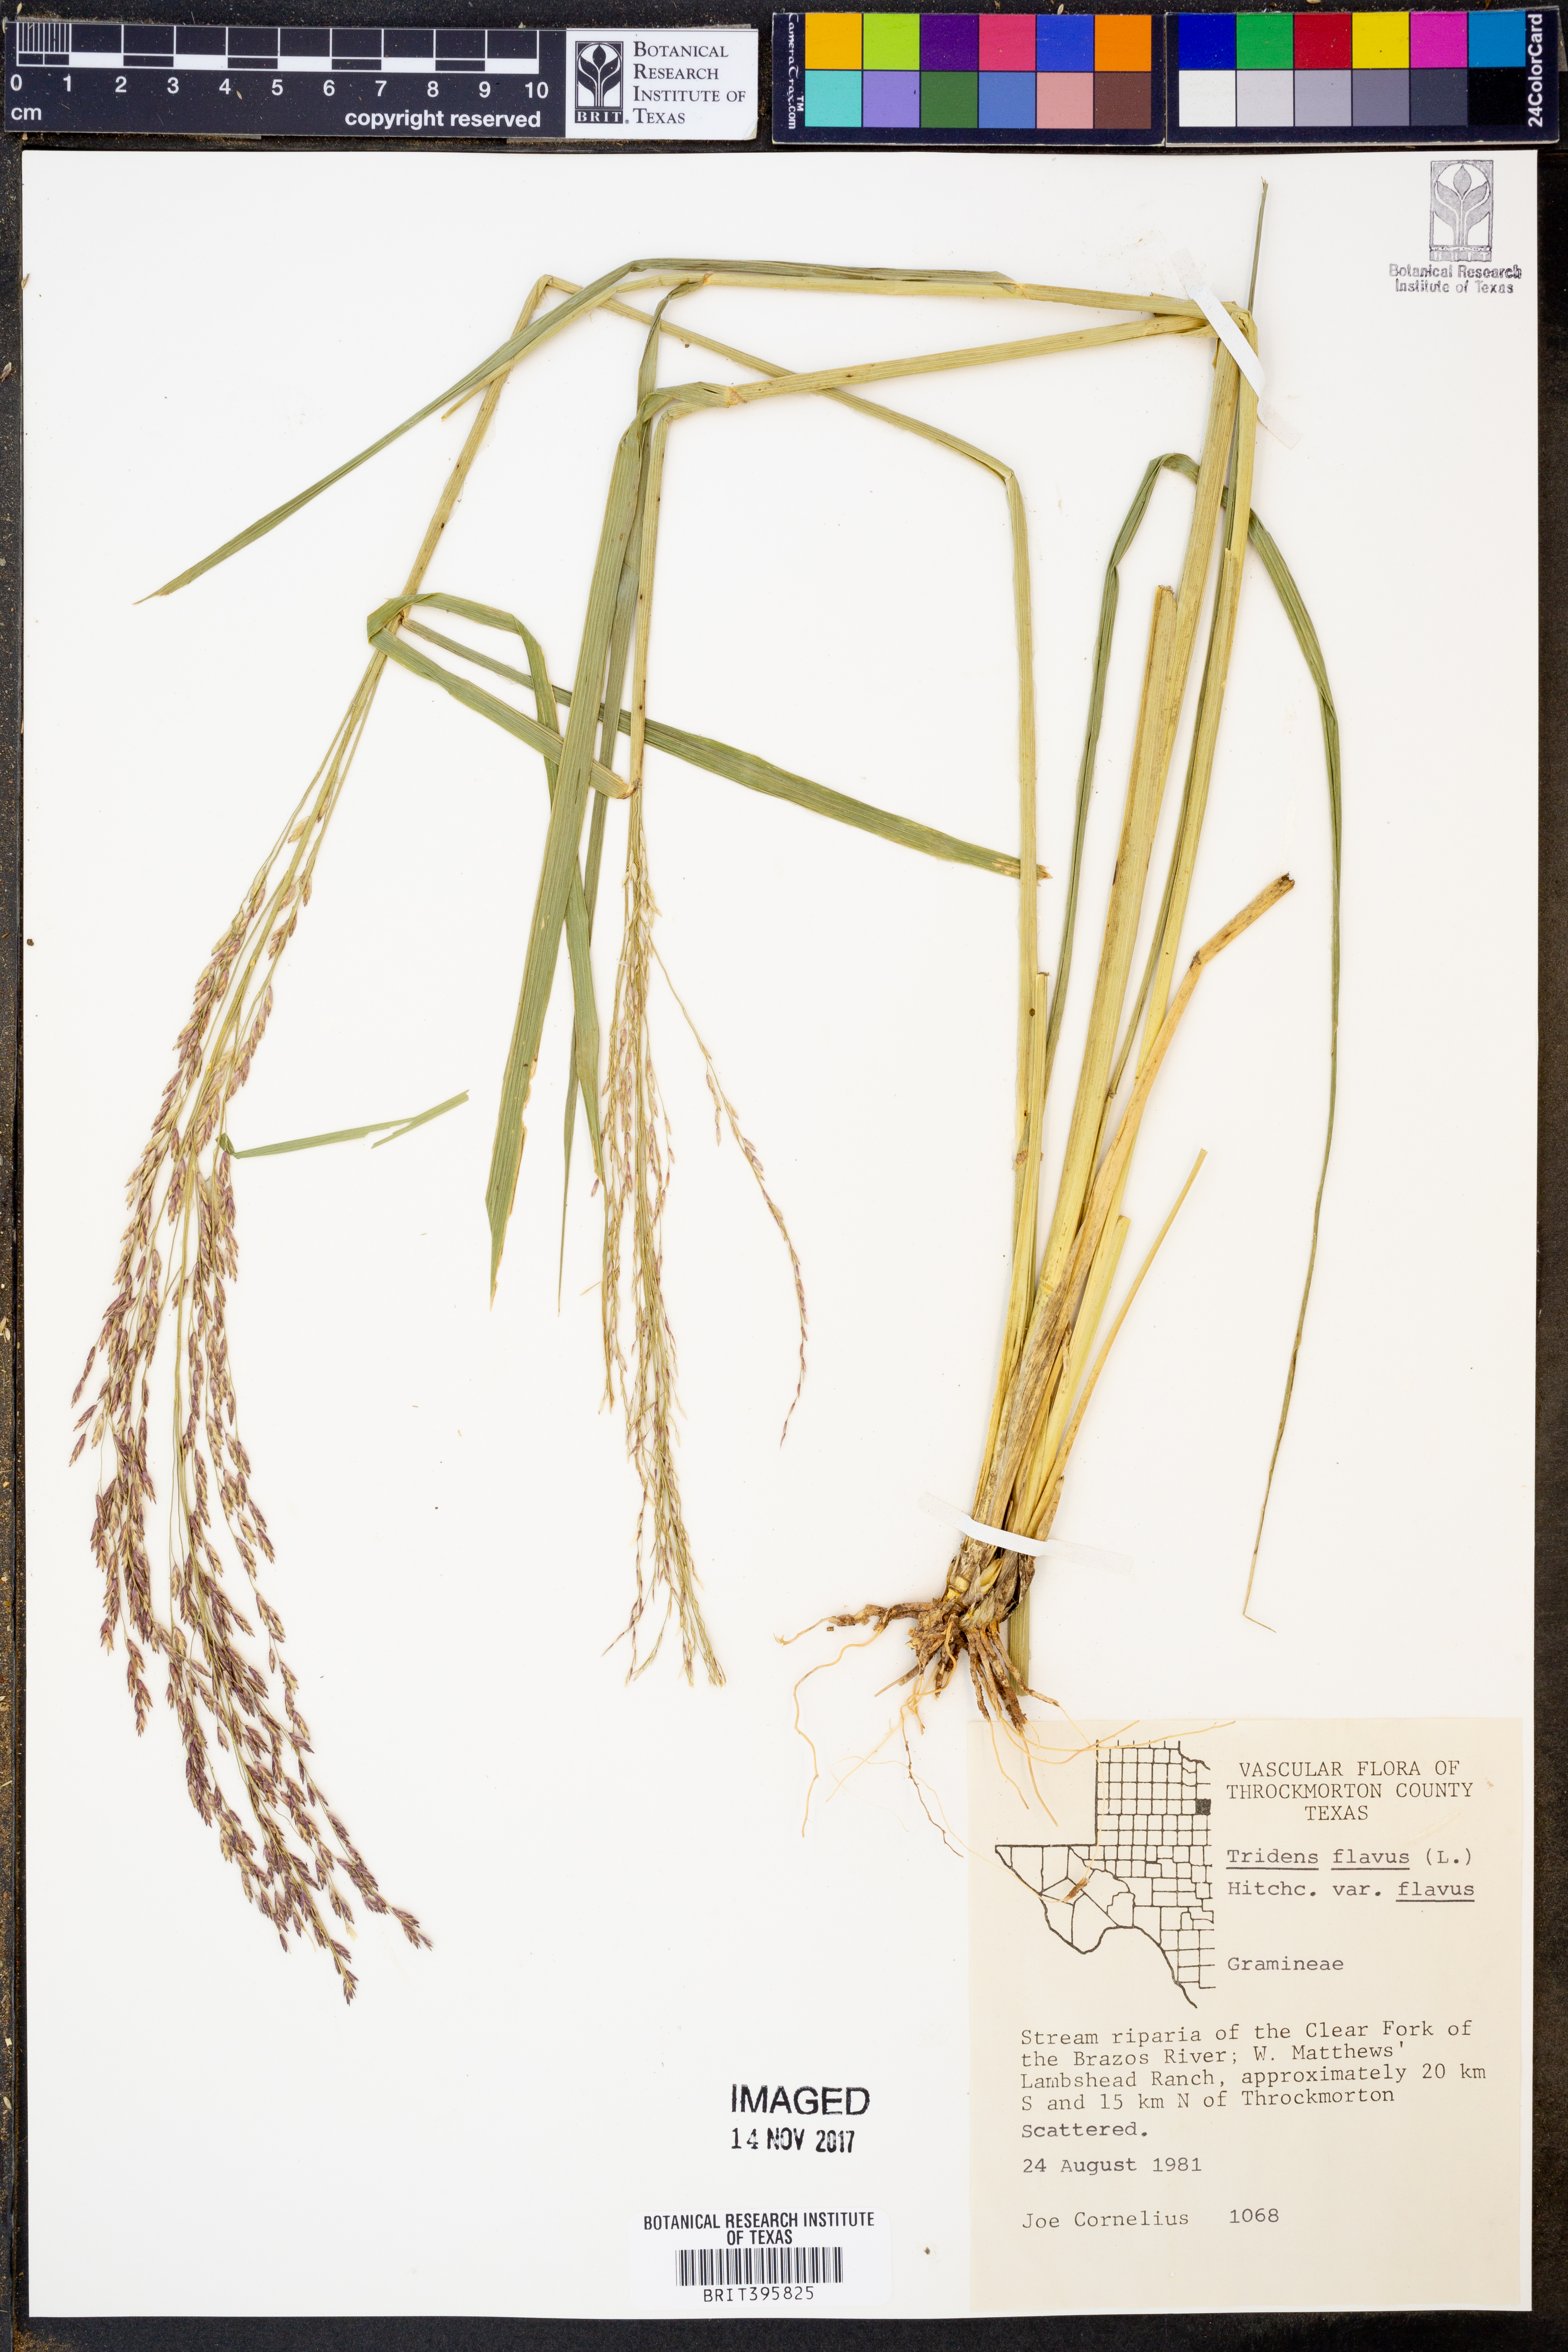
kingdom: Plantae
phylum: Tracheophyta
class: Liliopsida
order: Poales
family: Poaceae
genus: Tridens
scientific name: Tridens flavus
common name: Purpletop
